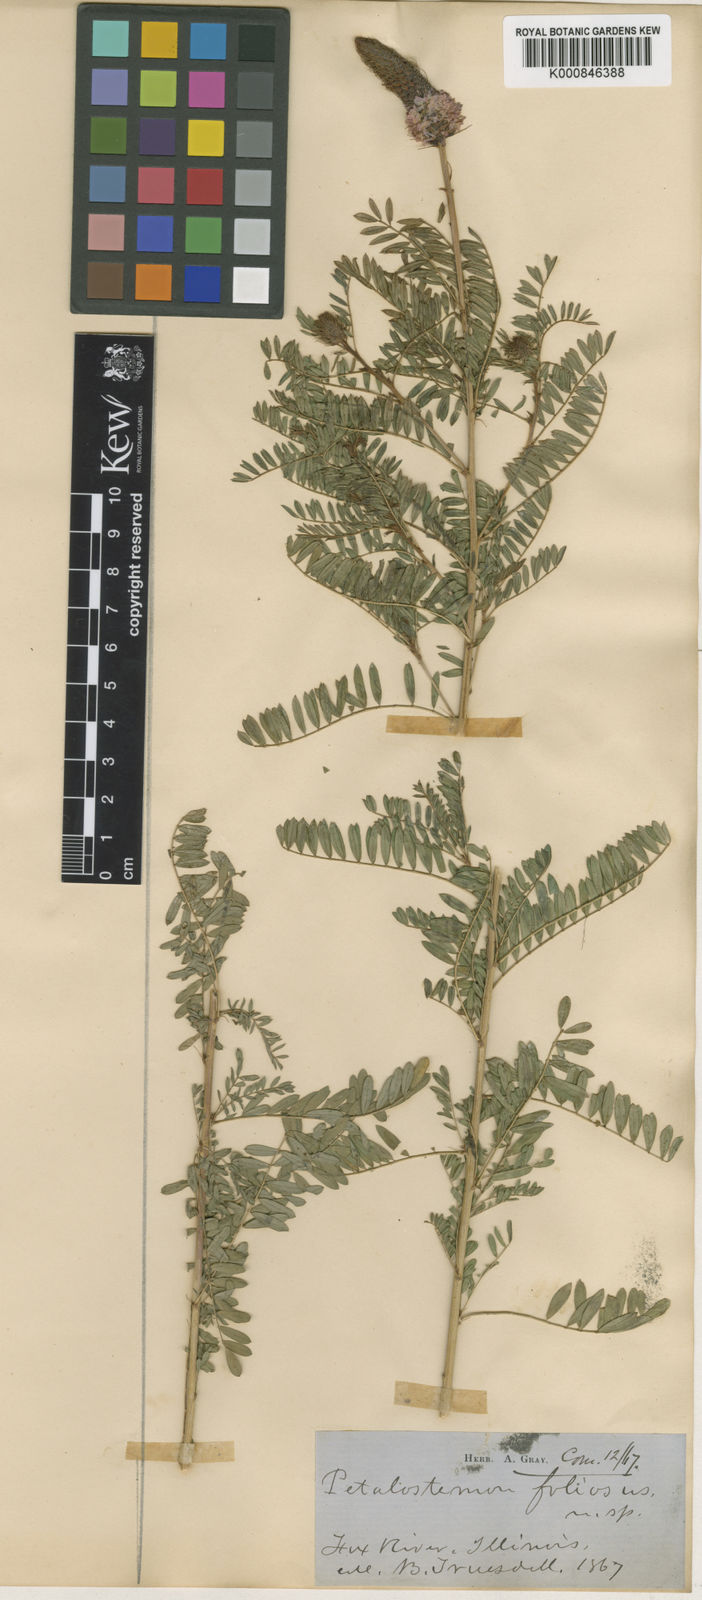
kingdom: Plantae
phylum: Tracheophyta
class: Magnoliopsida
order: Fabales
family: Fabaceae
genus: Dalea
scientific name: Dalea foliolosa
